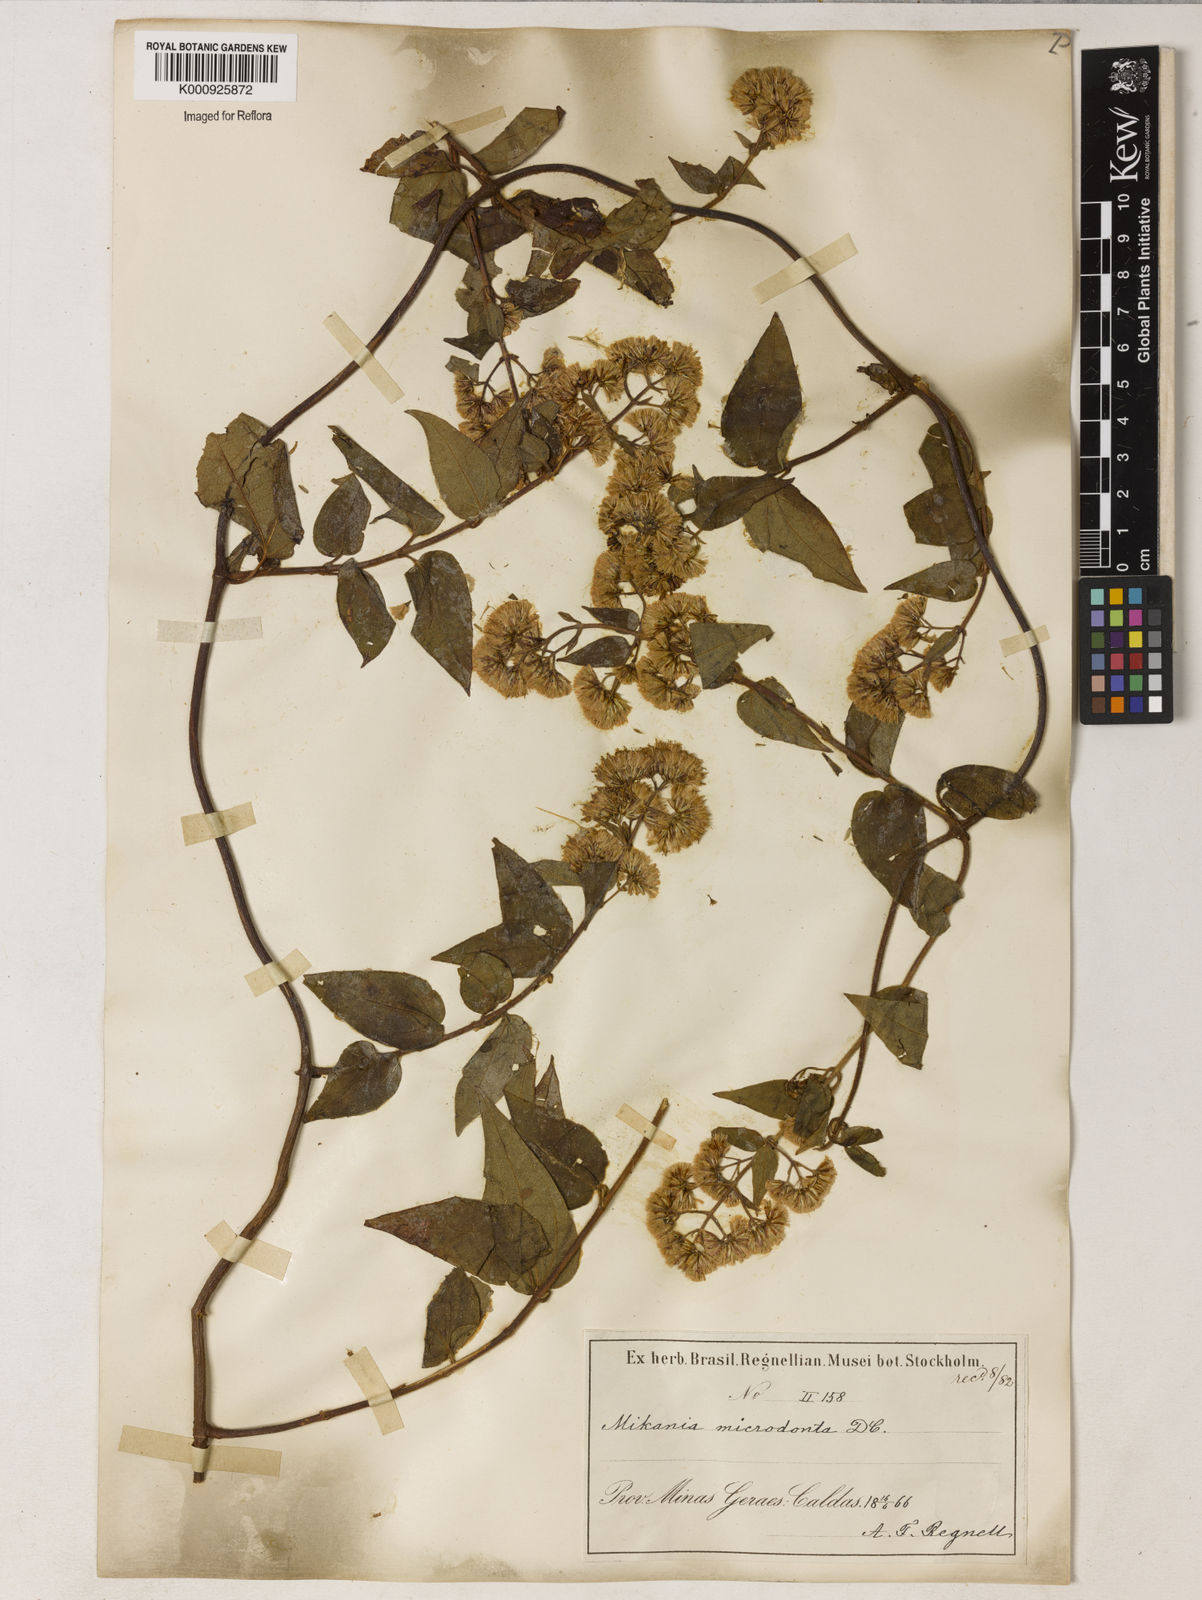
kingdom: Plantae
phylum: Tracheophyta
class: Magnoliopsida
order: Asterales
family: Asteraceae
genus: Mikania
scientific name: Mikania microdonta
